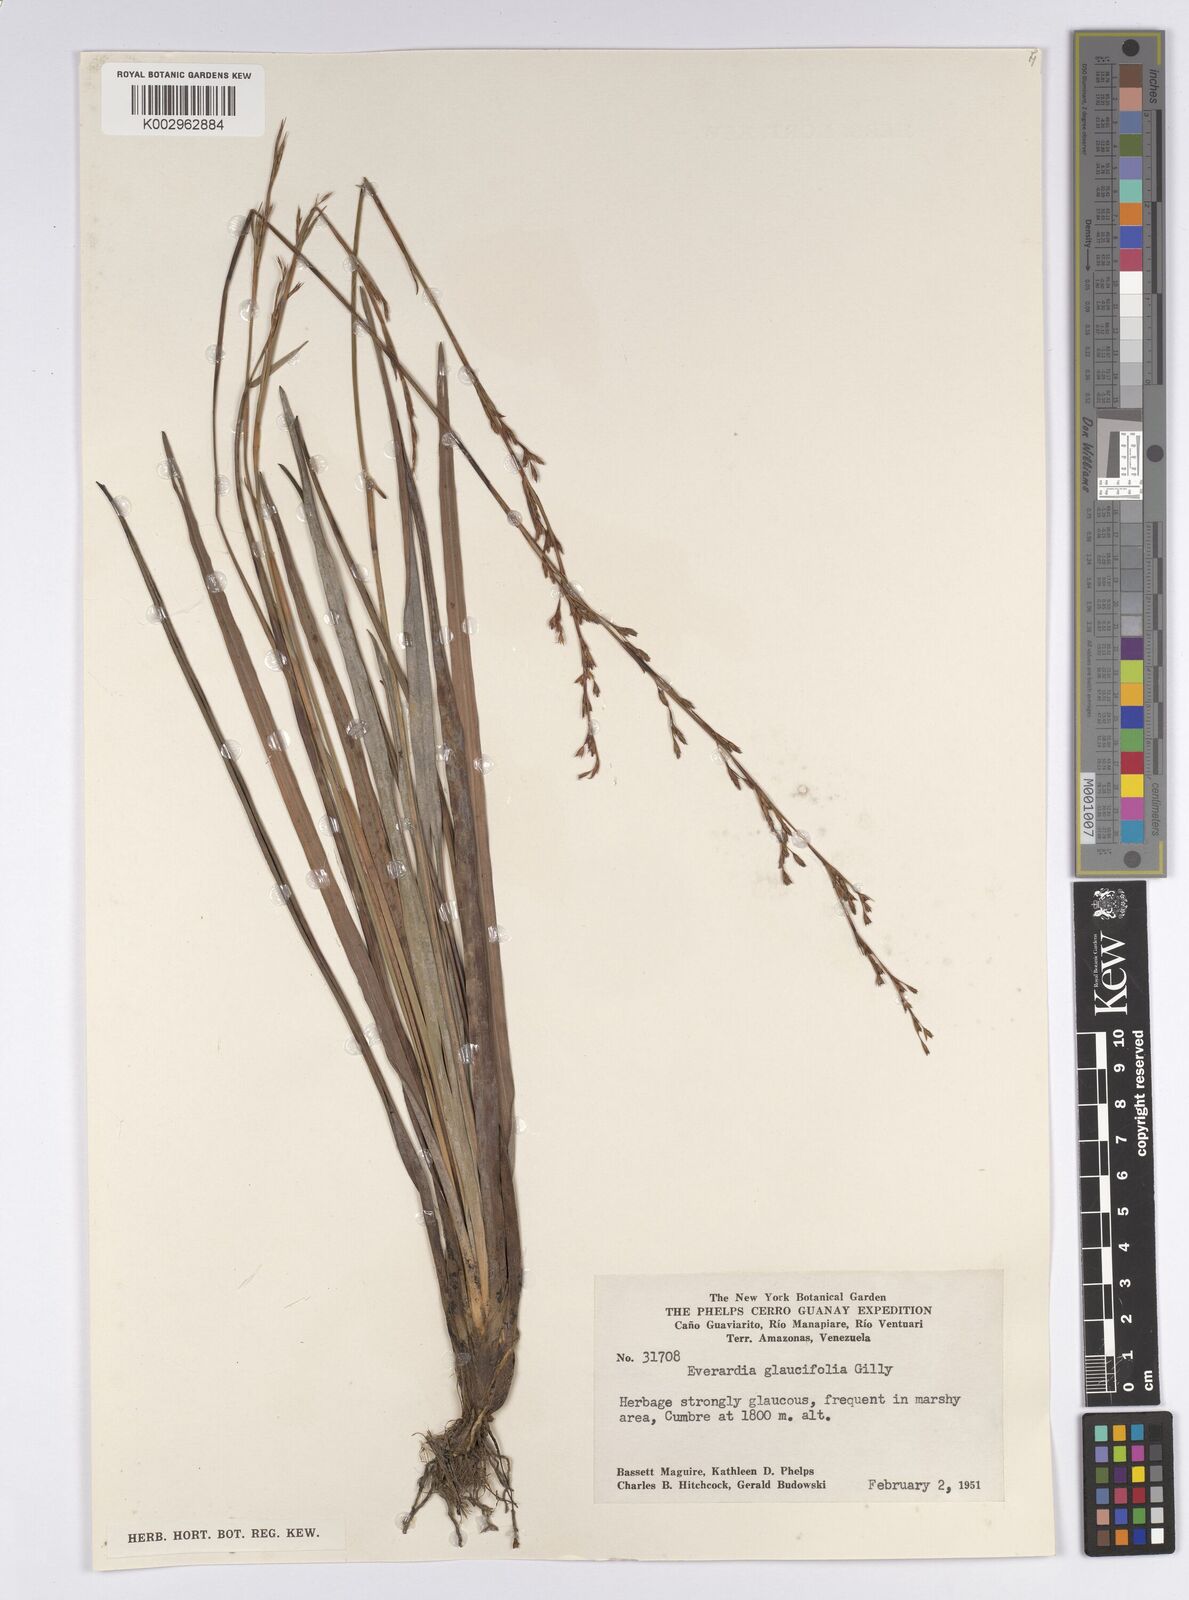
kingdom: Plantae
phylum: Tracheophyta
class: Liliopsida
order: Poales
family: Cyperaceae
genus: Cephalocarpus
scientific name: Cephalocarpus montanus
